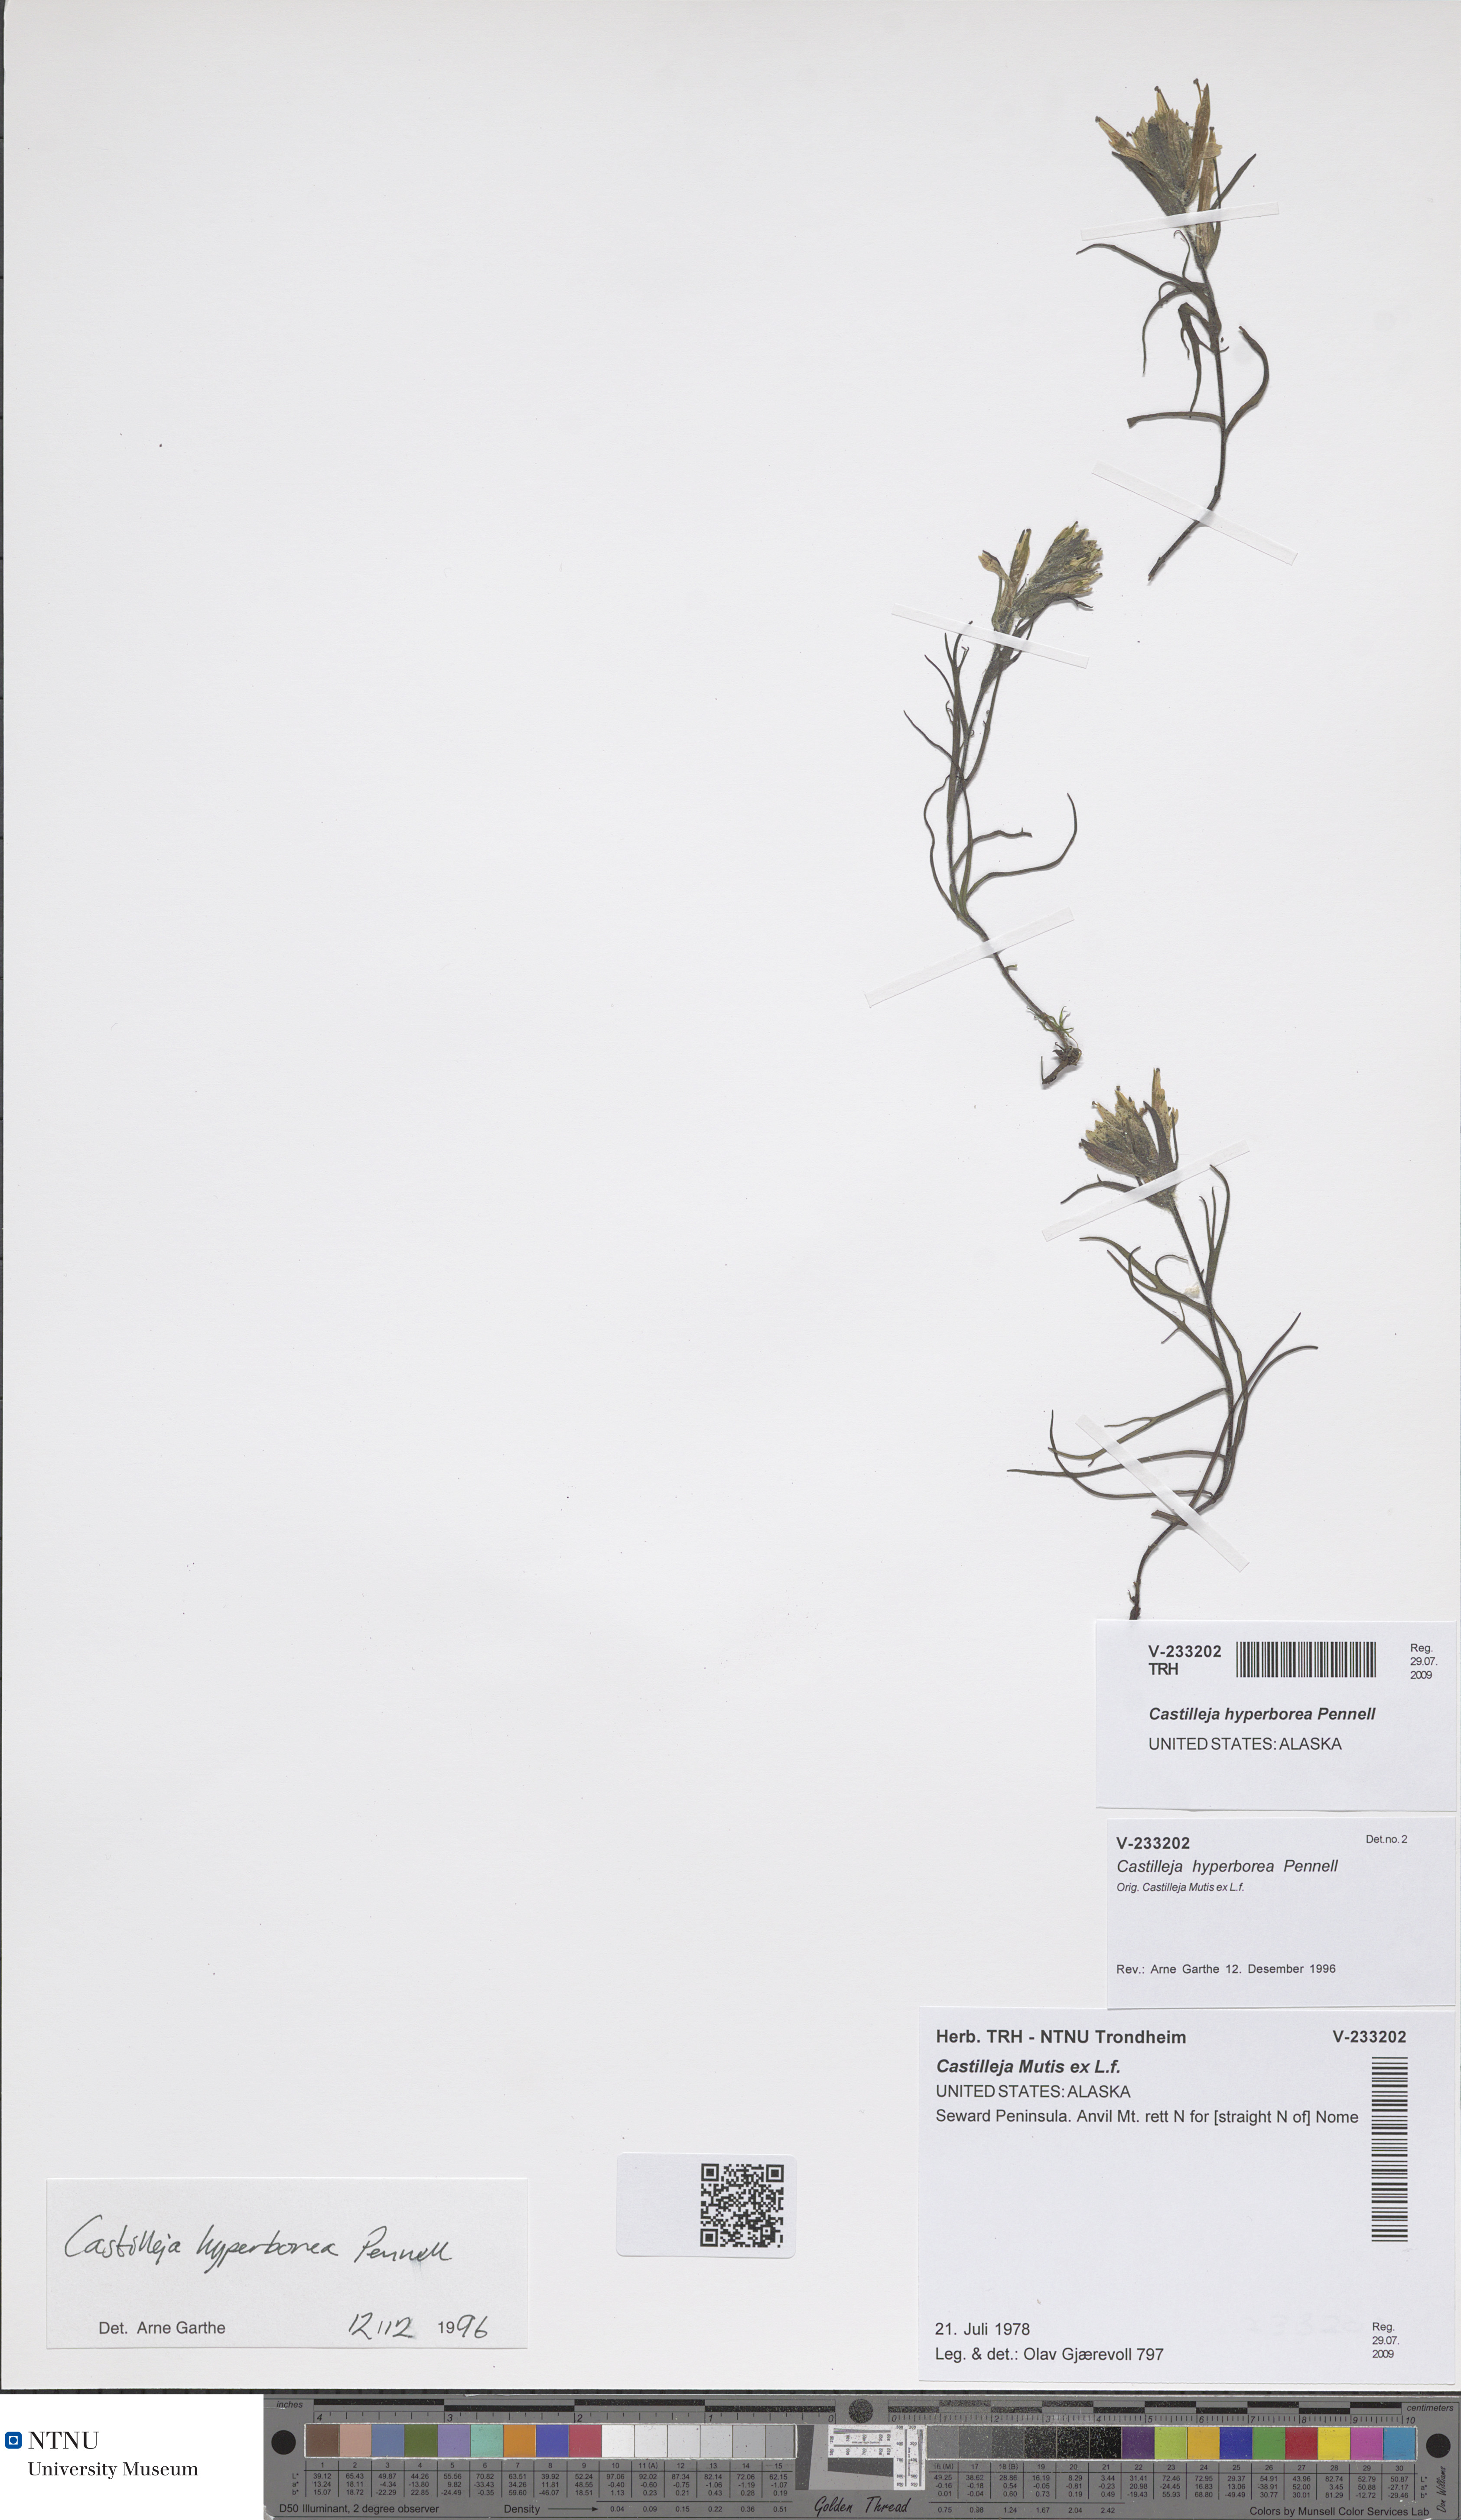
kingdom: Plantae
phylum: Tracheophyta
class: Magnoliopsida
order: Lamiales
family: Orobanchaceae
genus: Castilleja
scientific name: Castilleja hyperborea
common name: Northern paintbrush
